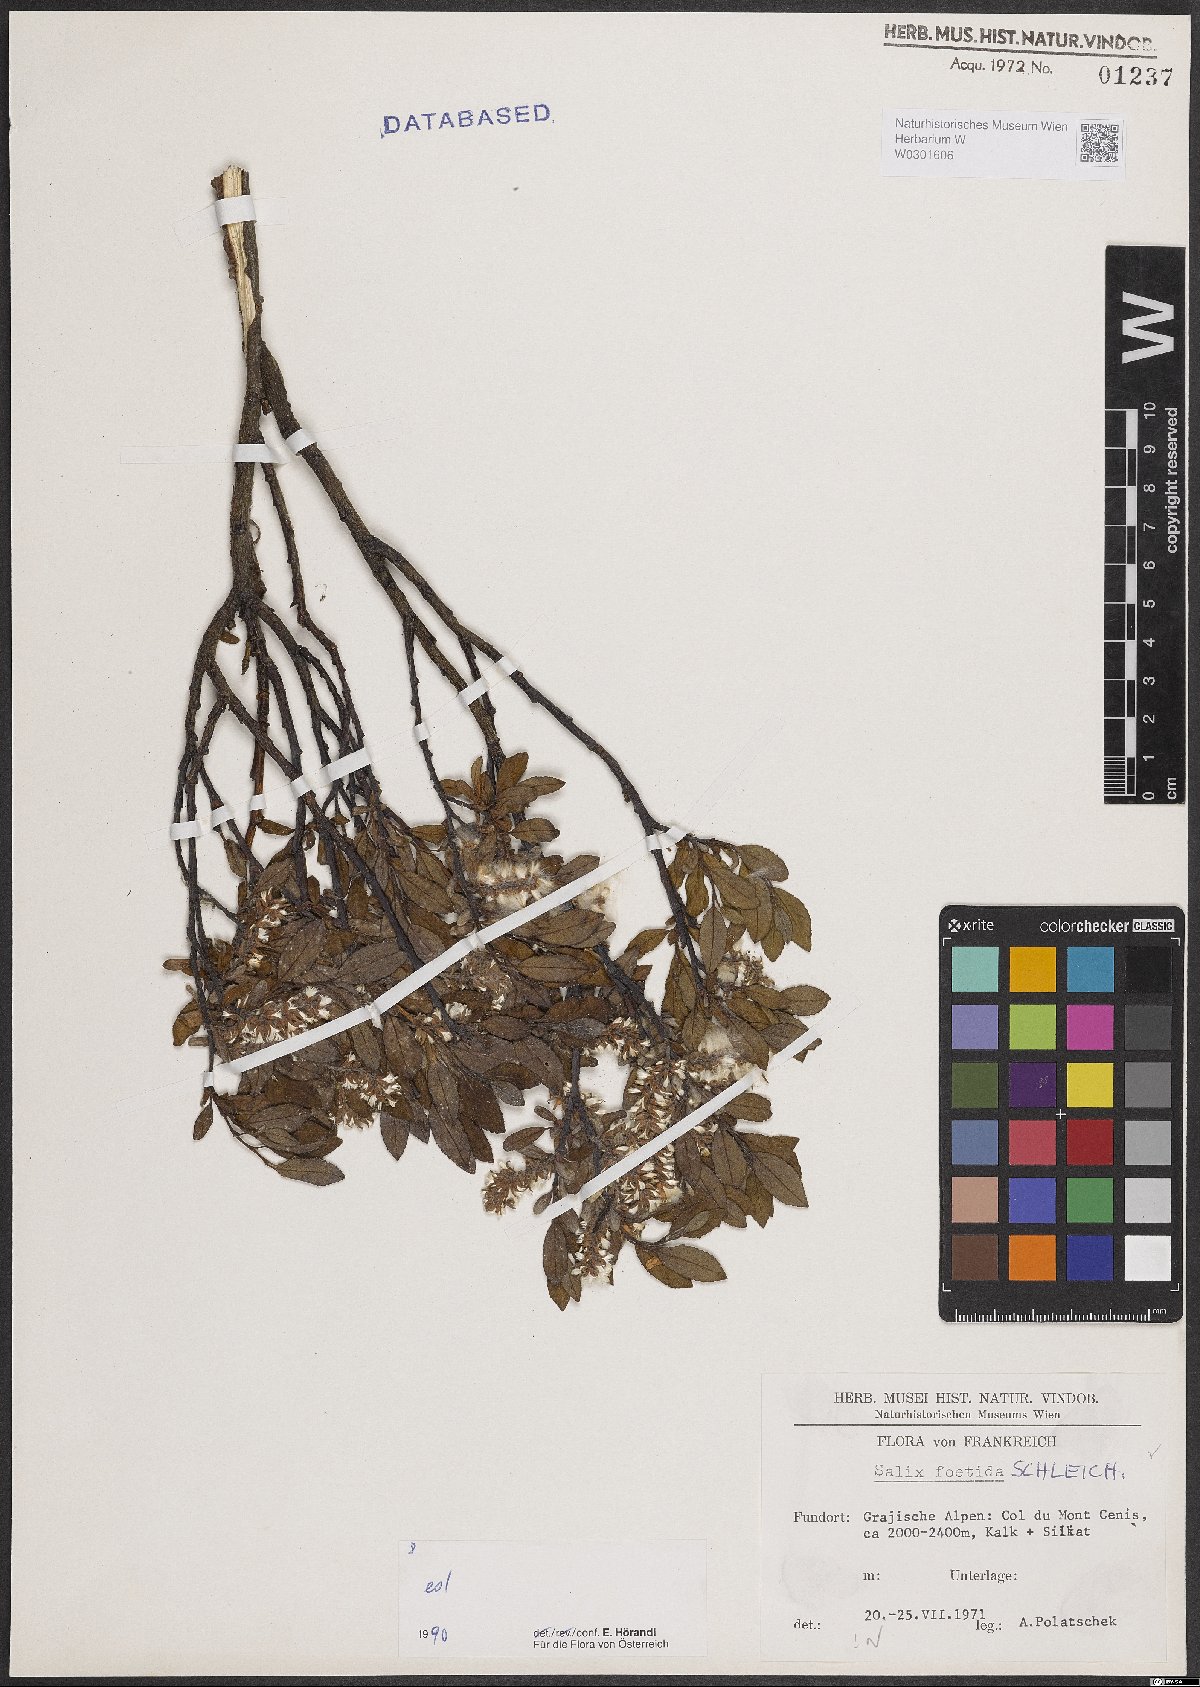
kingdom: Plantae
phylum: Tracheophyta
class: Magnoliopsida
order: Malpighiales
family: Salicaceae
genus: Salix
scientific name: Salix foetida
